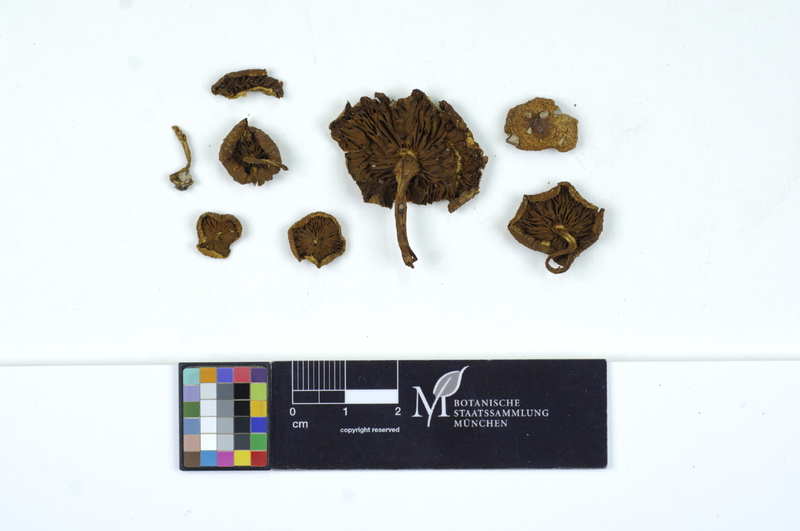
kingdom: Fungi
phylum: Basidiomycota
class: Agaricomycetes
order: Agaricales
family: Strophariaceae
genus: Pholiota
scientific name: Pholiota spumosa
